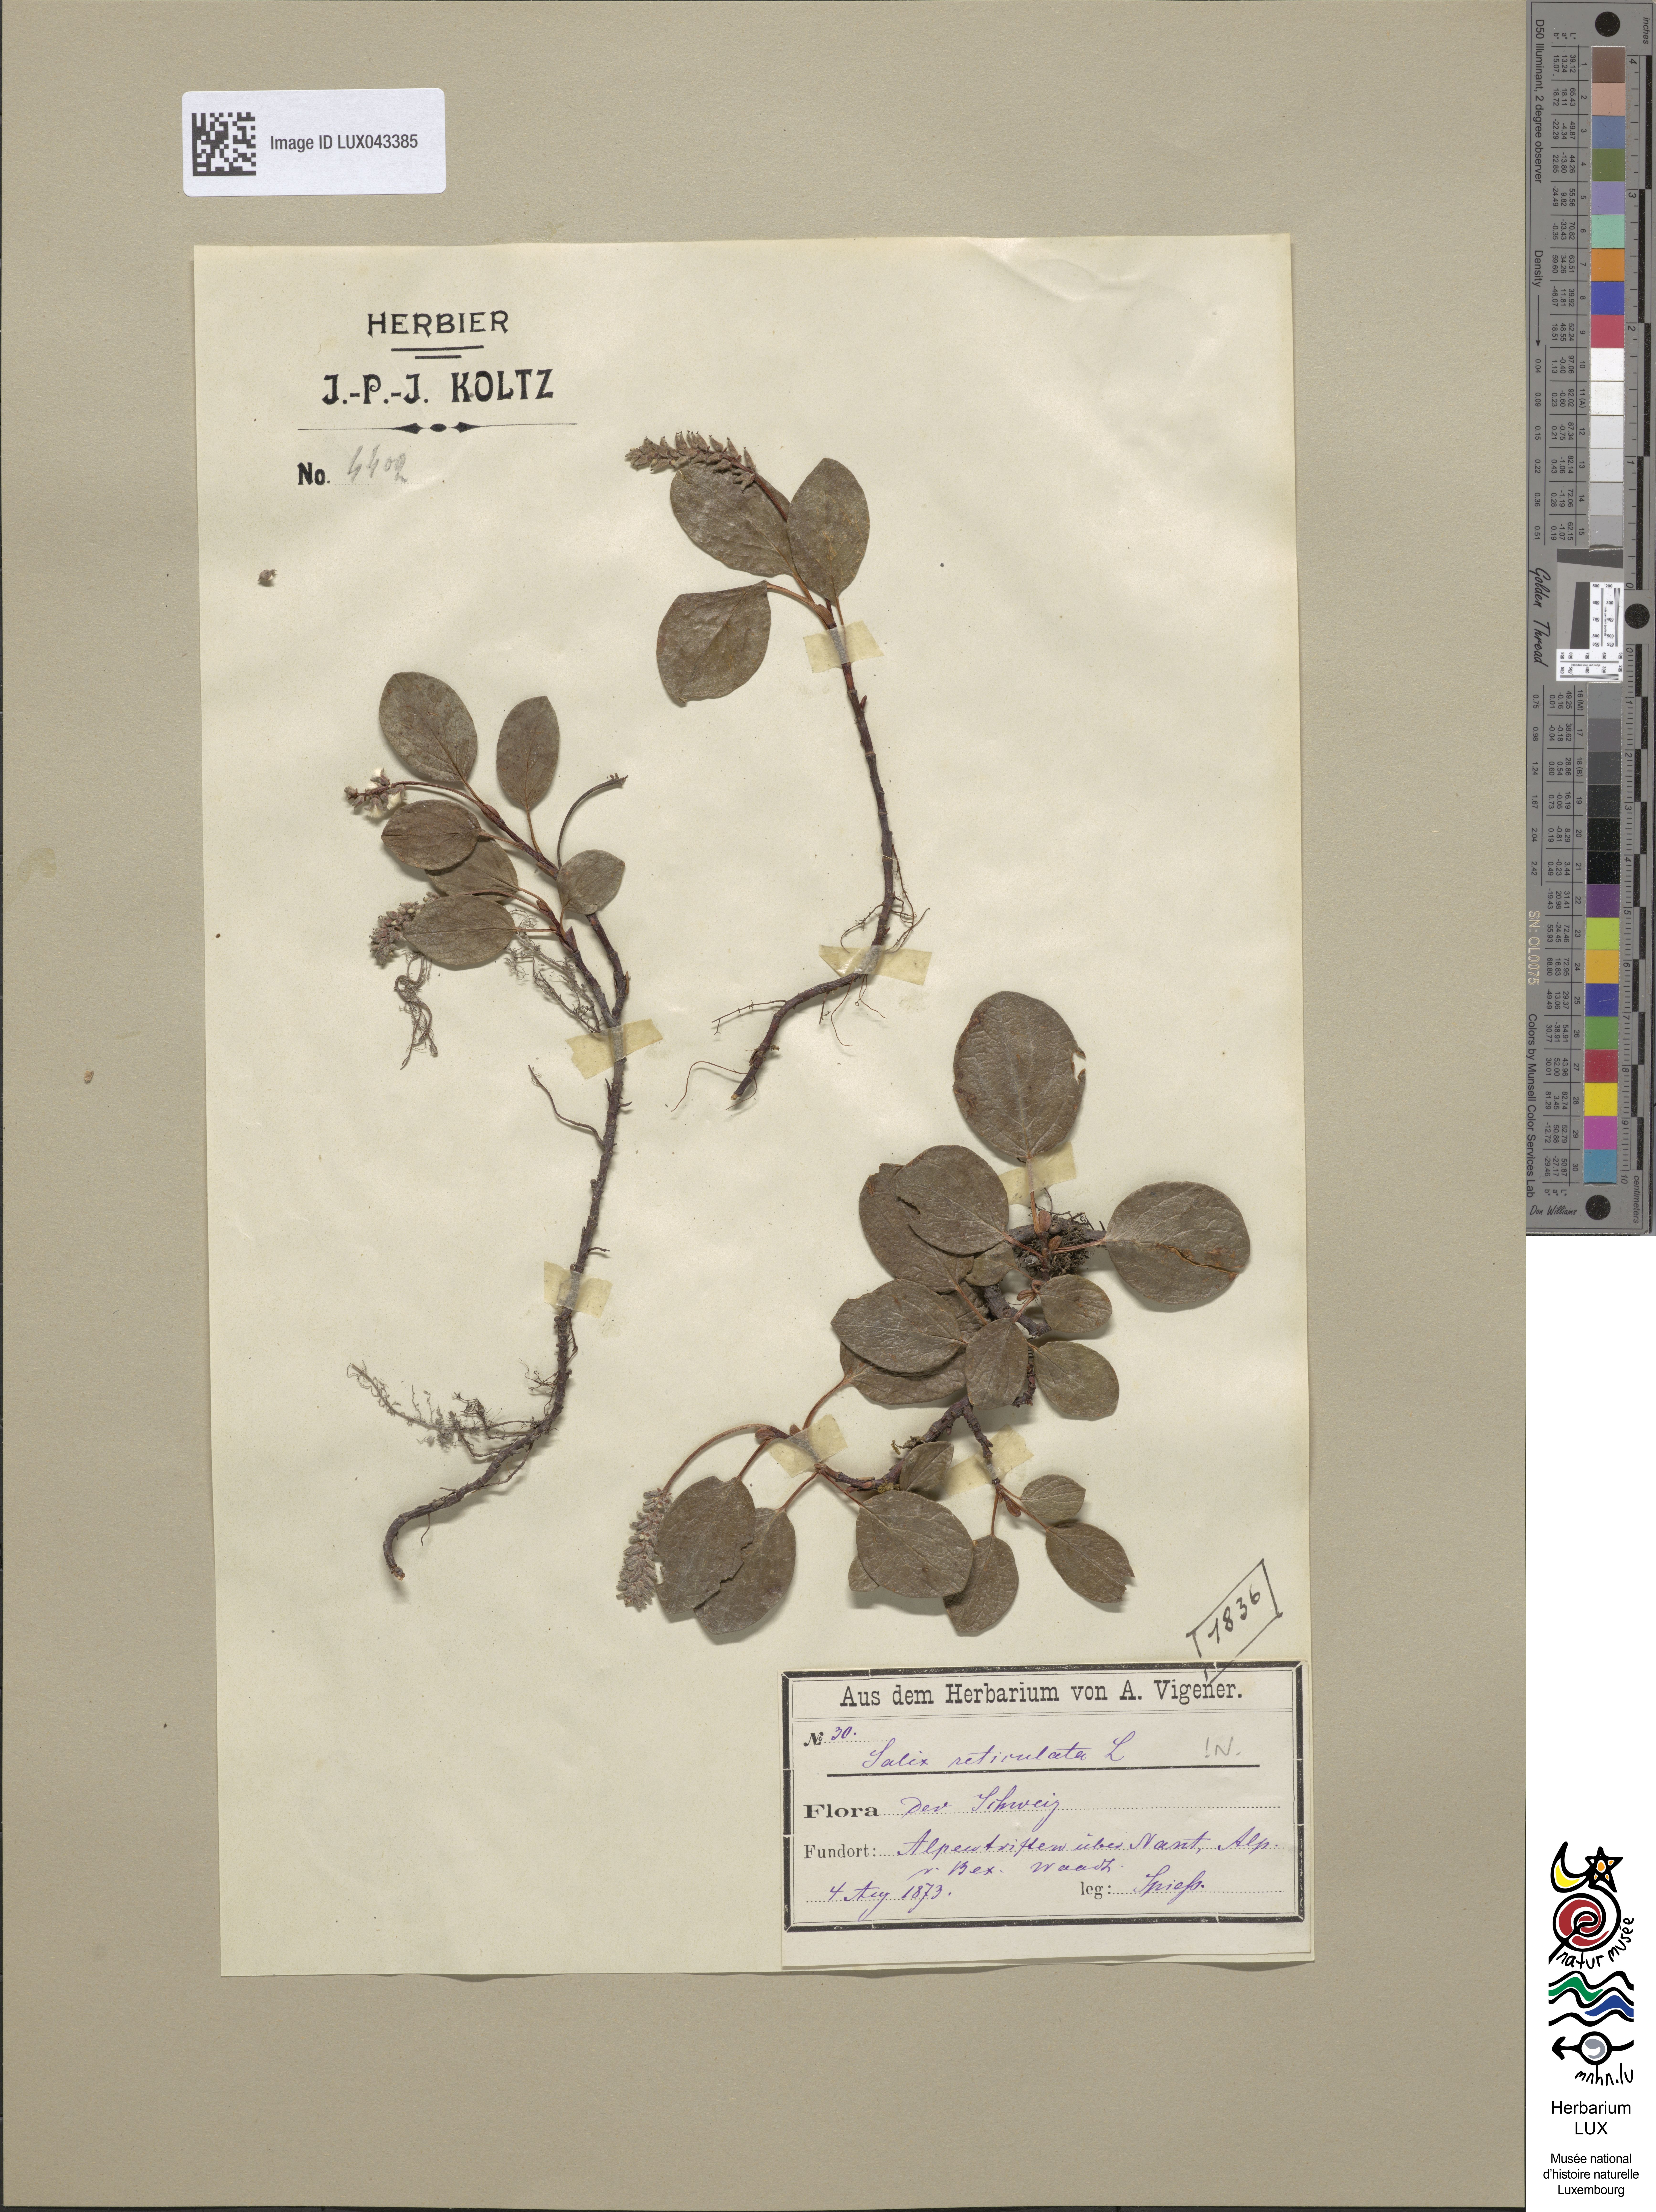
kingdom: Plantae
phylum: Tracheophyta
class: Magnoliopsida
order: Malpighiales
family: Salicaceae
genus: Salix
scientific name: Salix reticulata
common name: Net-leaved willow
